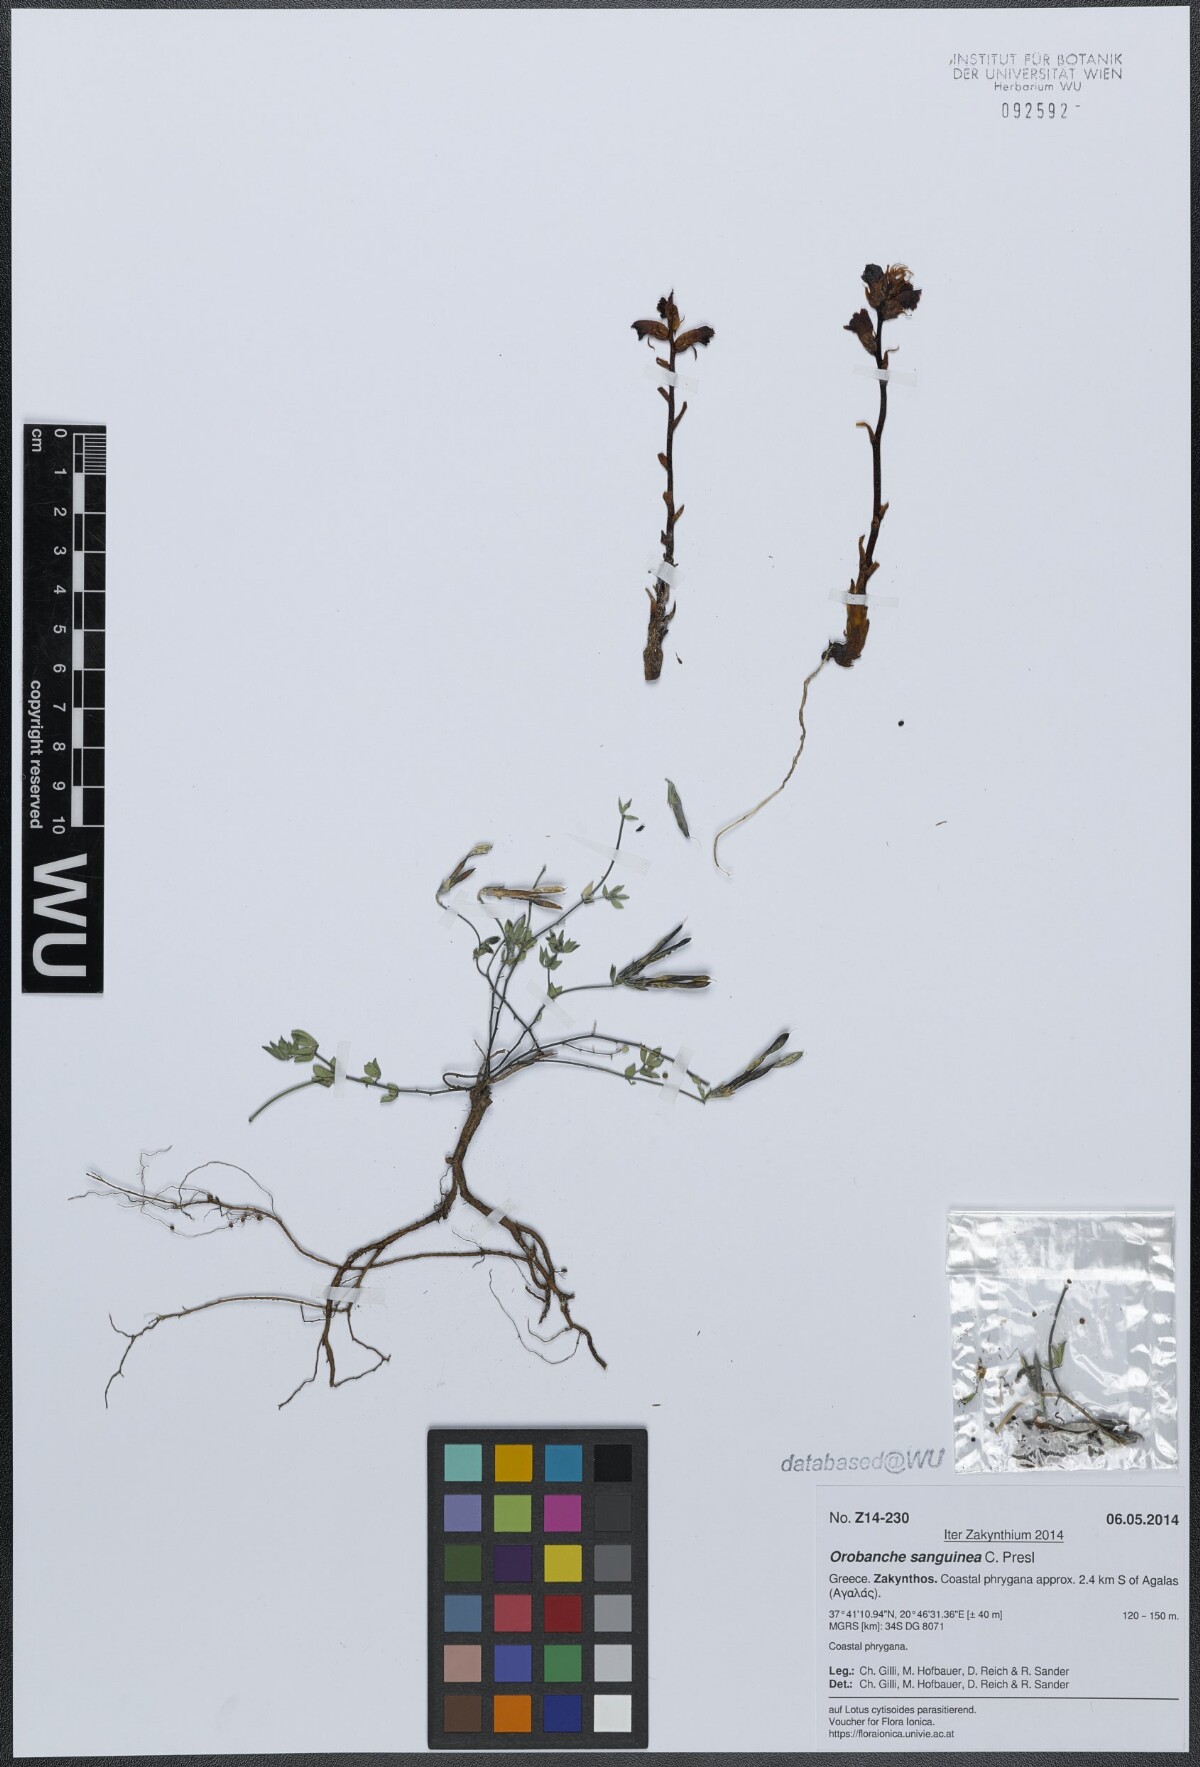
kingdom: Plantae
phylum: Tracheophyta
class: Magnoliopsida
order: Lamiales
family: Orobanchaceae
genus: Orobanche
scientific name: Orobanche sanguinea
